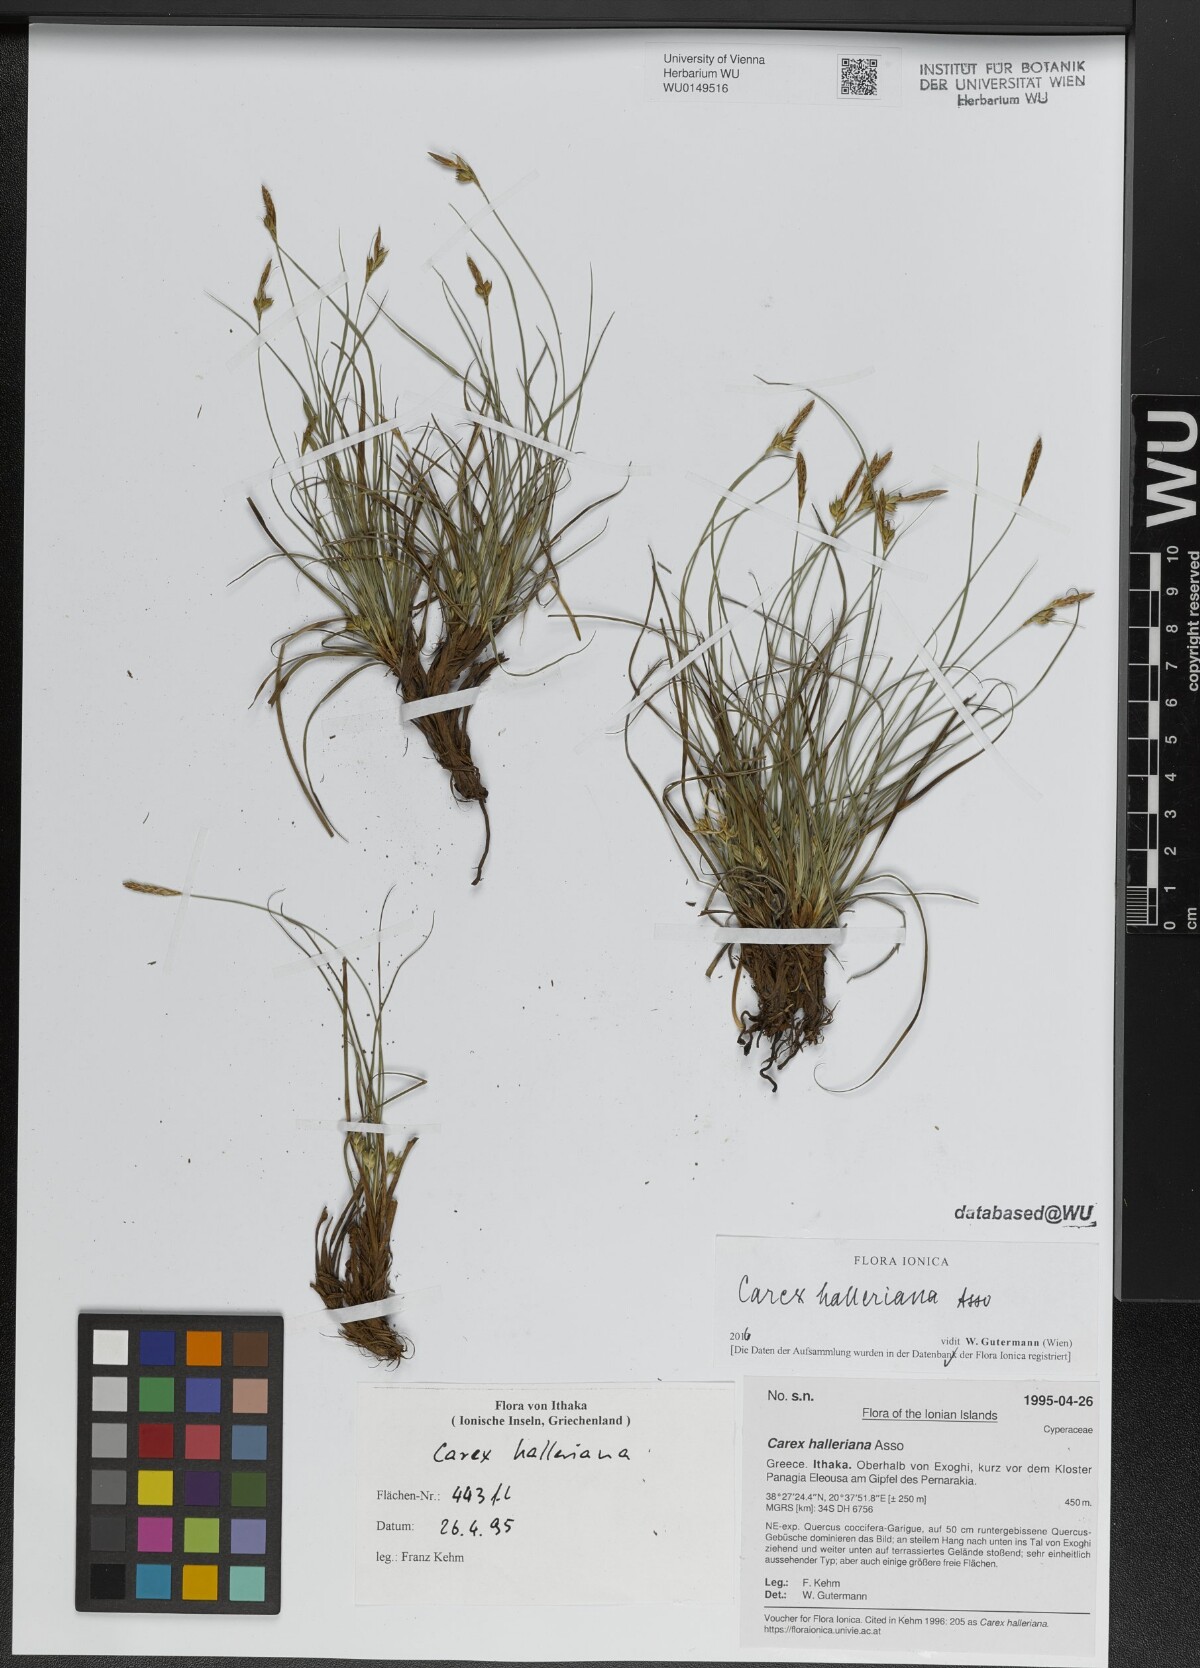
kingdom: Plantae
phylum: Tracheophyta
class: Liliopsida
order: Poales
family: Cyperaceae
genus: Carex
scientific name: Carex halleriana
